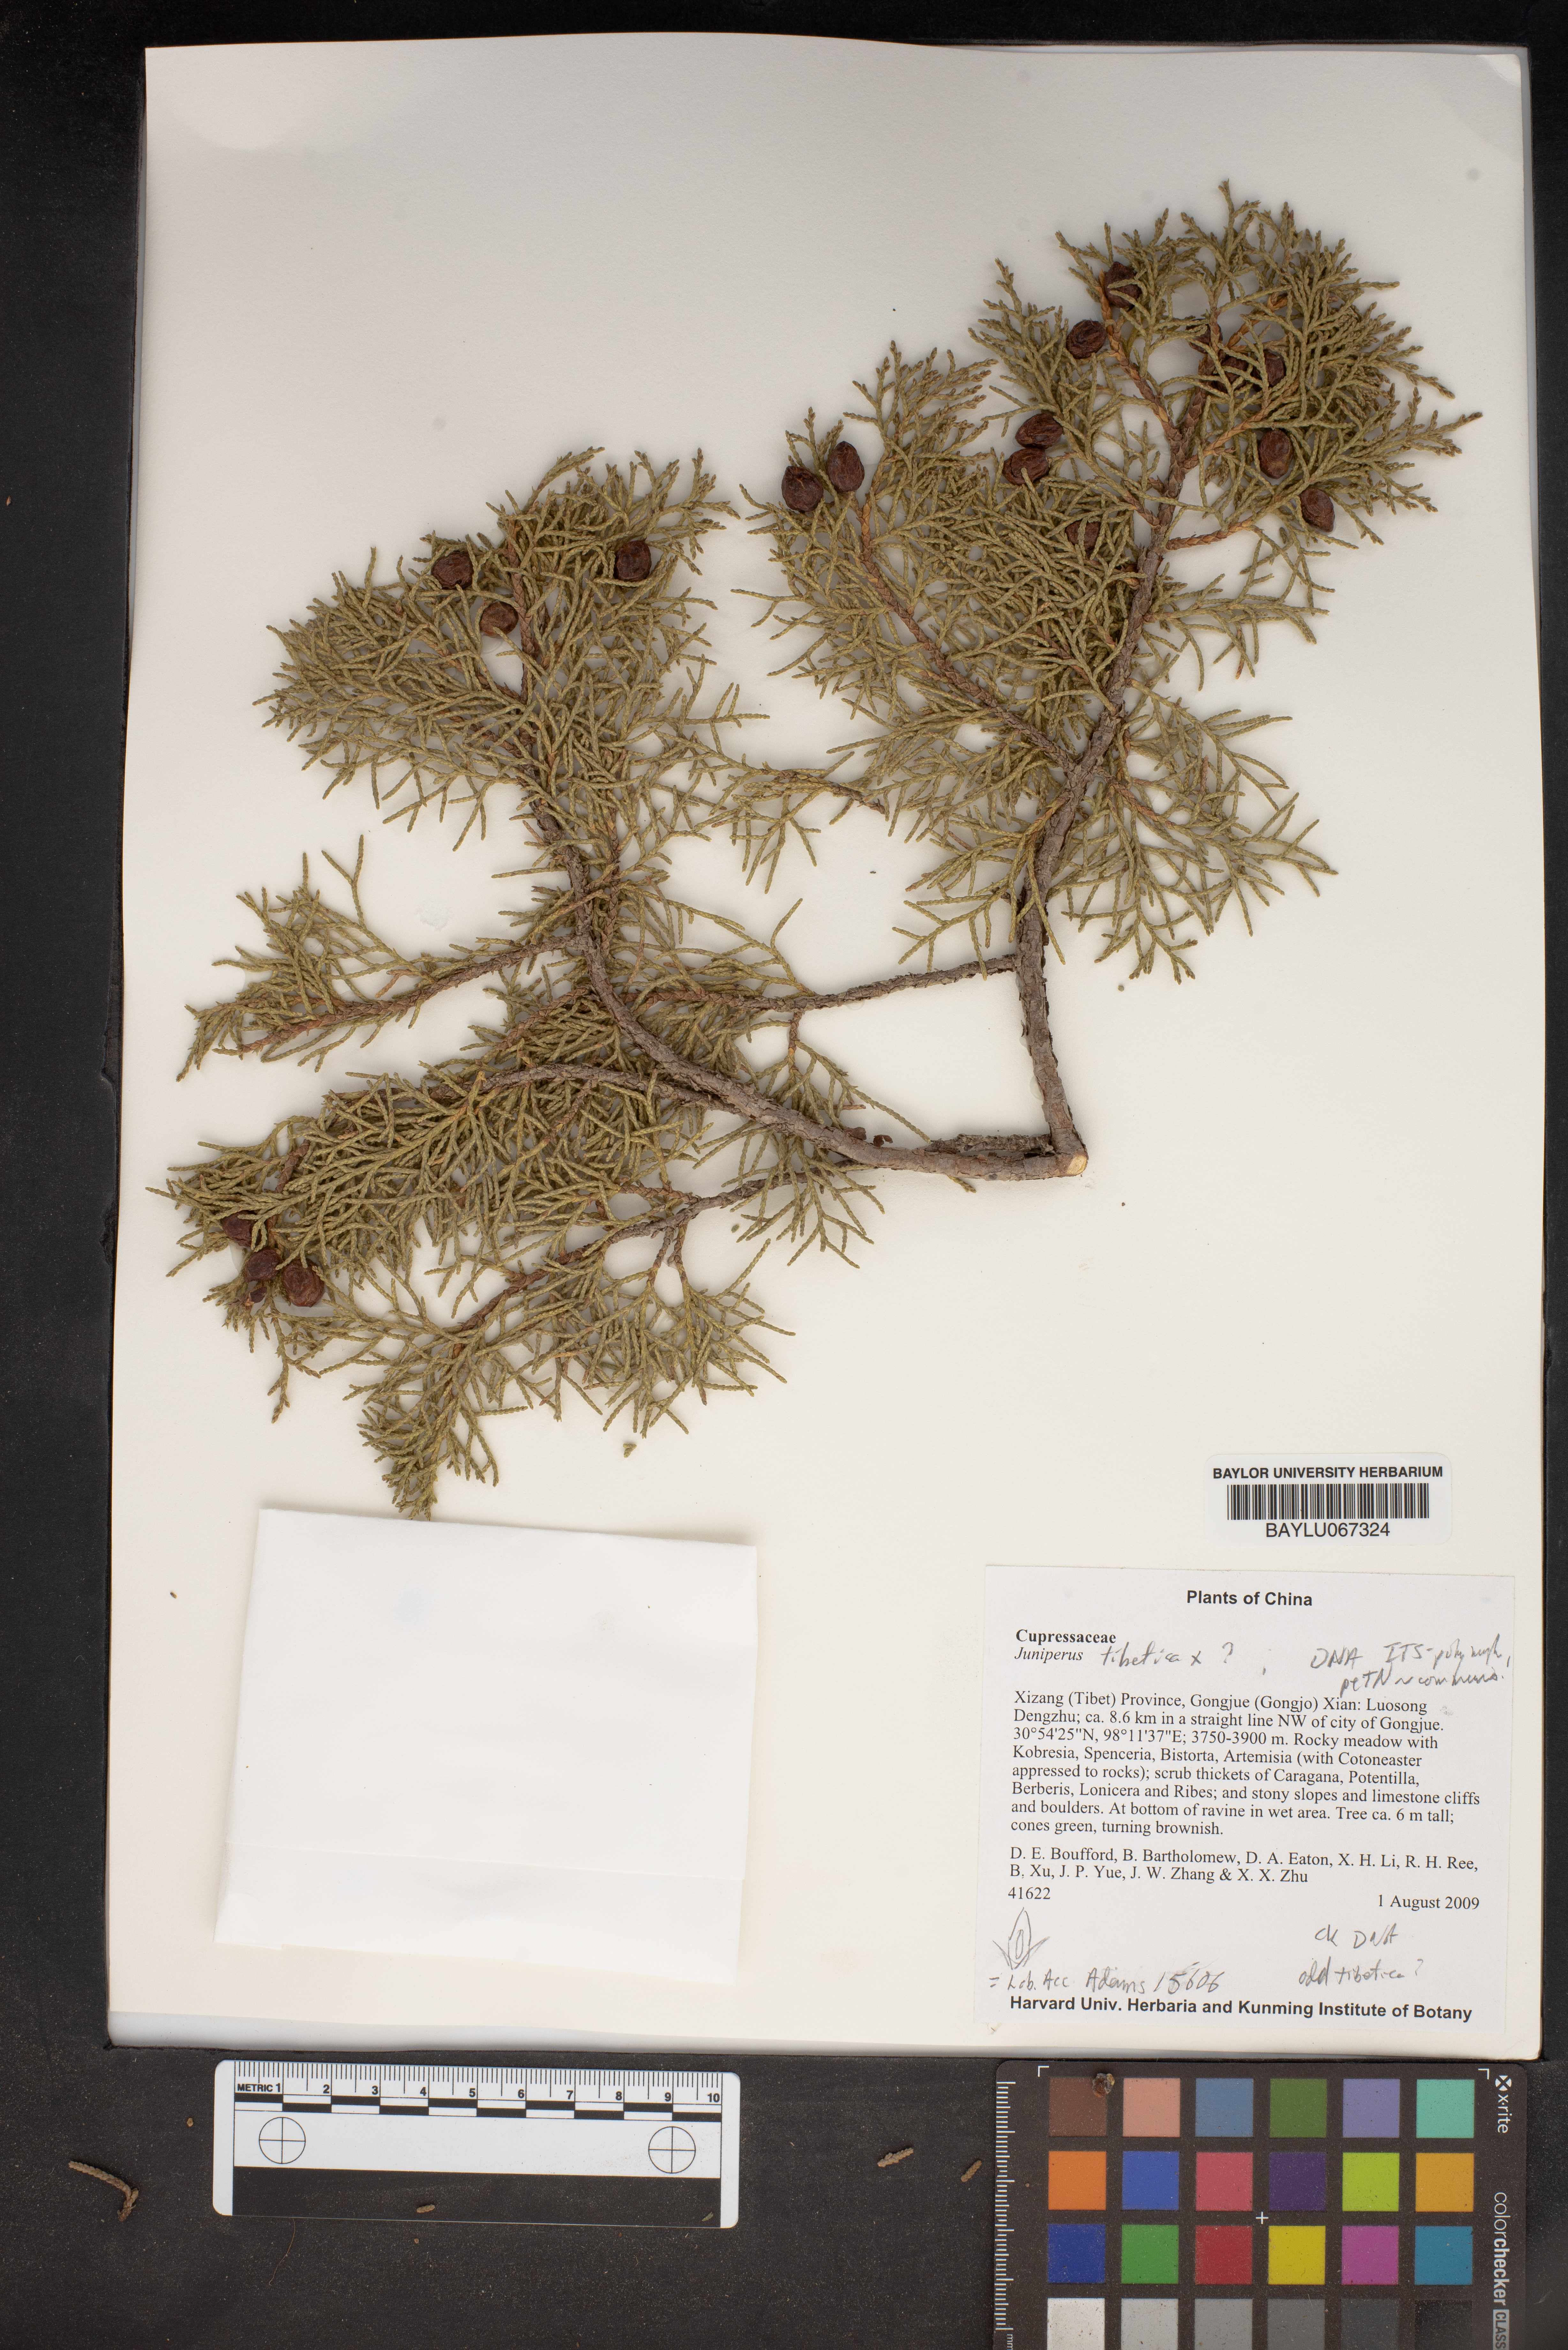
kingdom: Plantae
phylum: Tracheophyta
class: Pinopsida
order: Pinales
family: Cupressaceae
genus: Juniperus
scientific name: Juniperus tibetica
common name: Tibetan juniper
